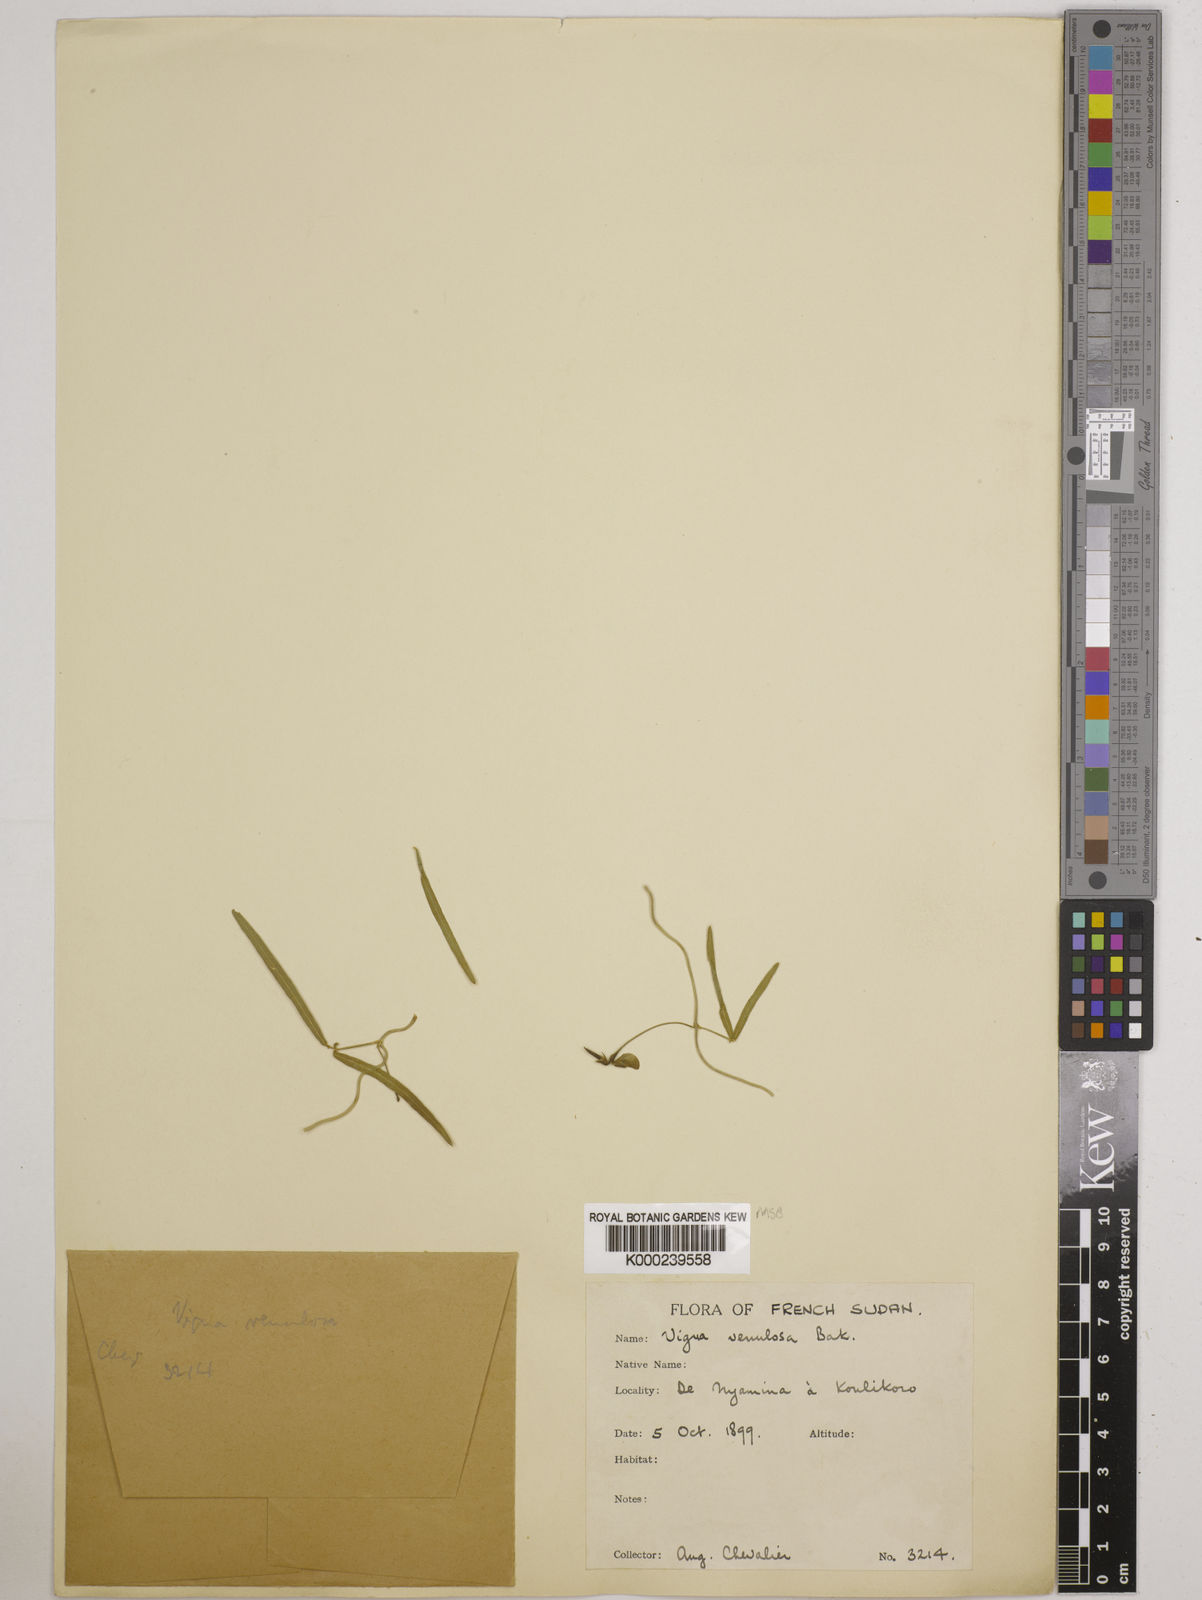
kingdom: Plantae
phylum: Tracheophyta
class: Magnoliopsida
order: Fabales
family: Fabaceae
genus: Vigna
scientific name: Vigna venulosa
